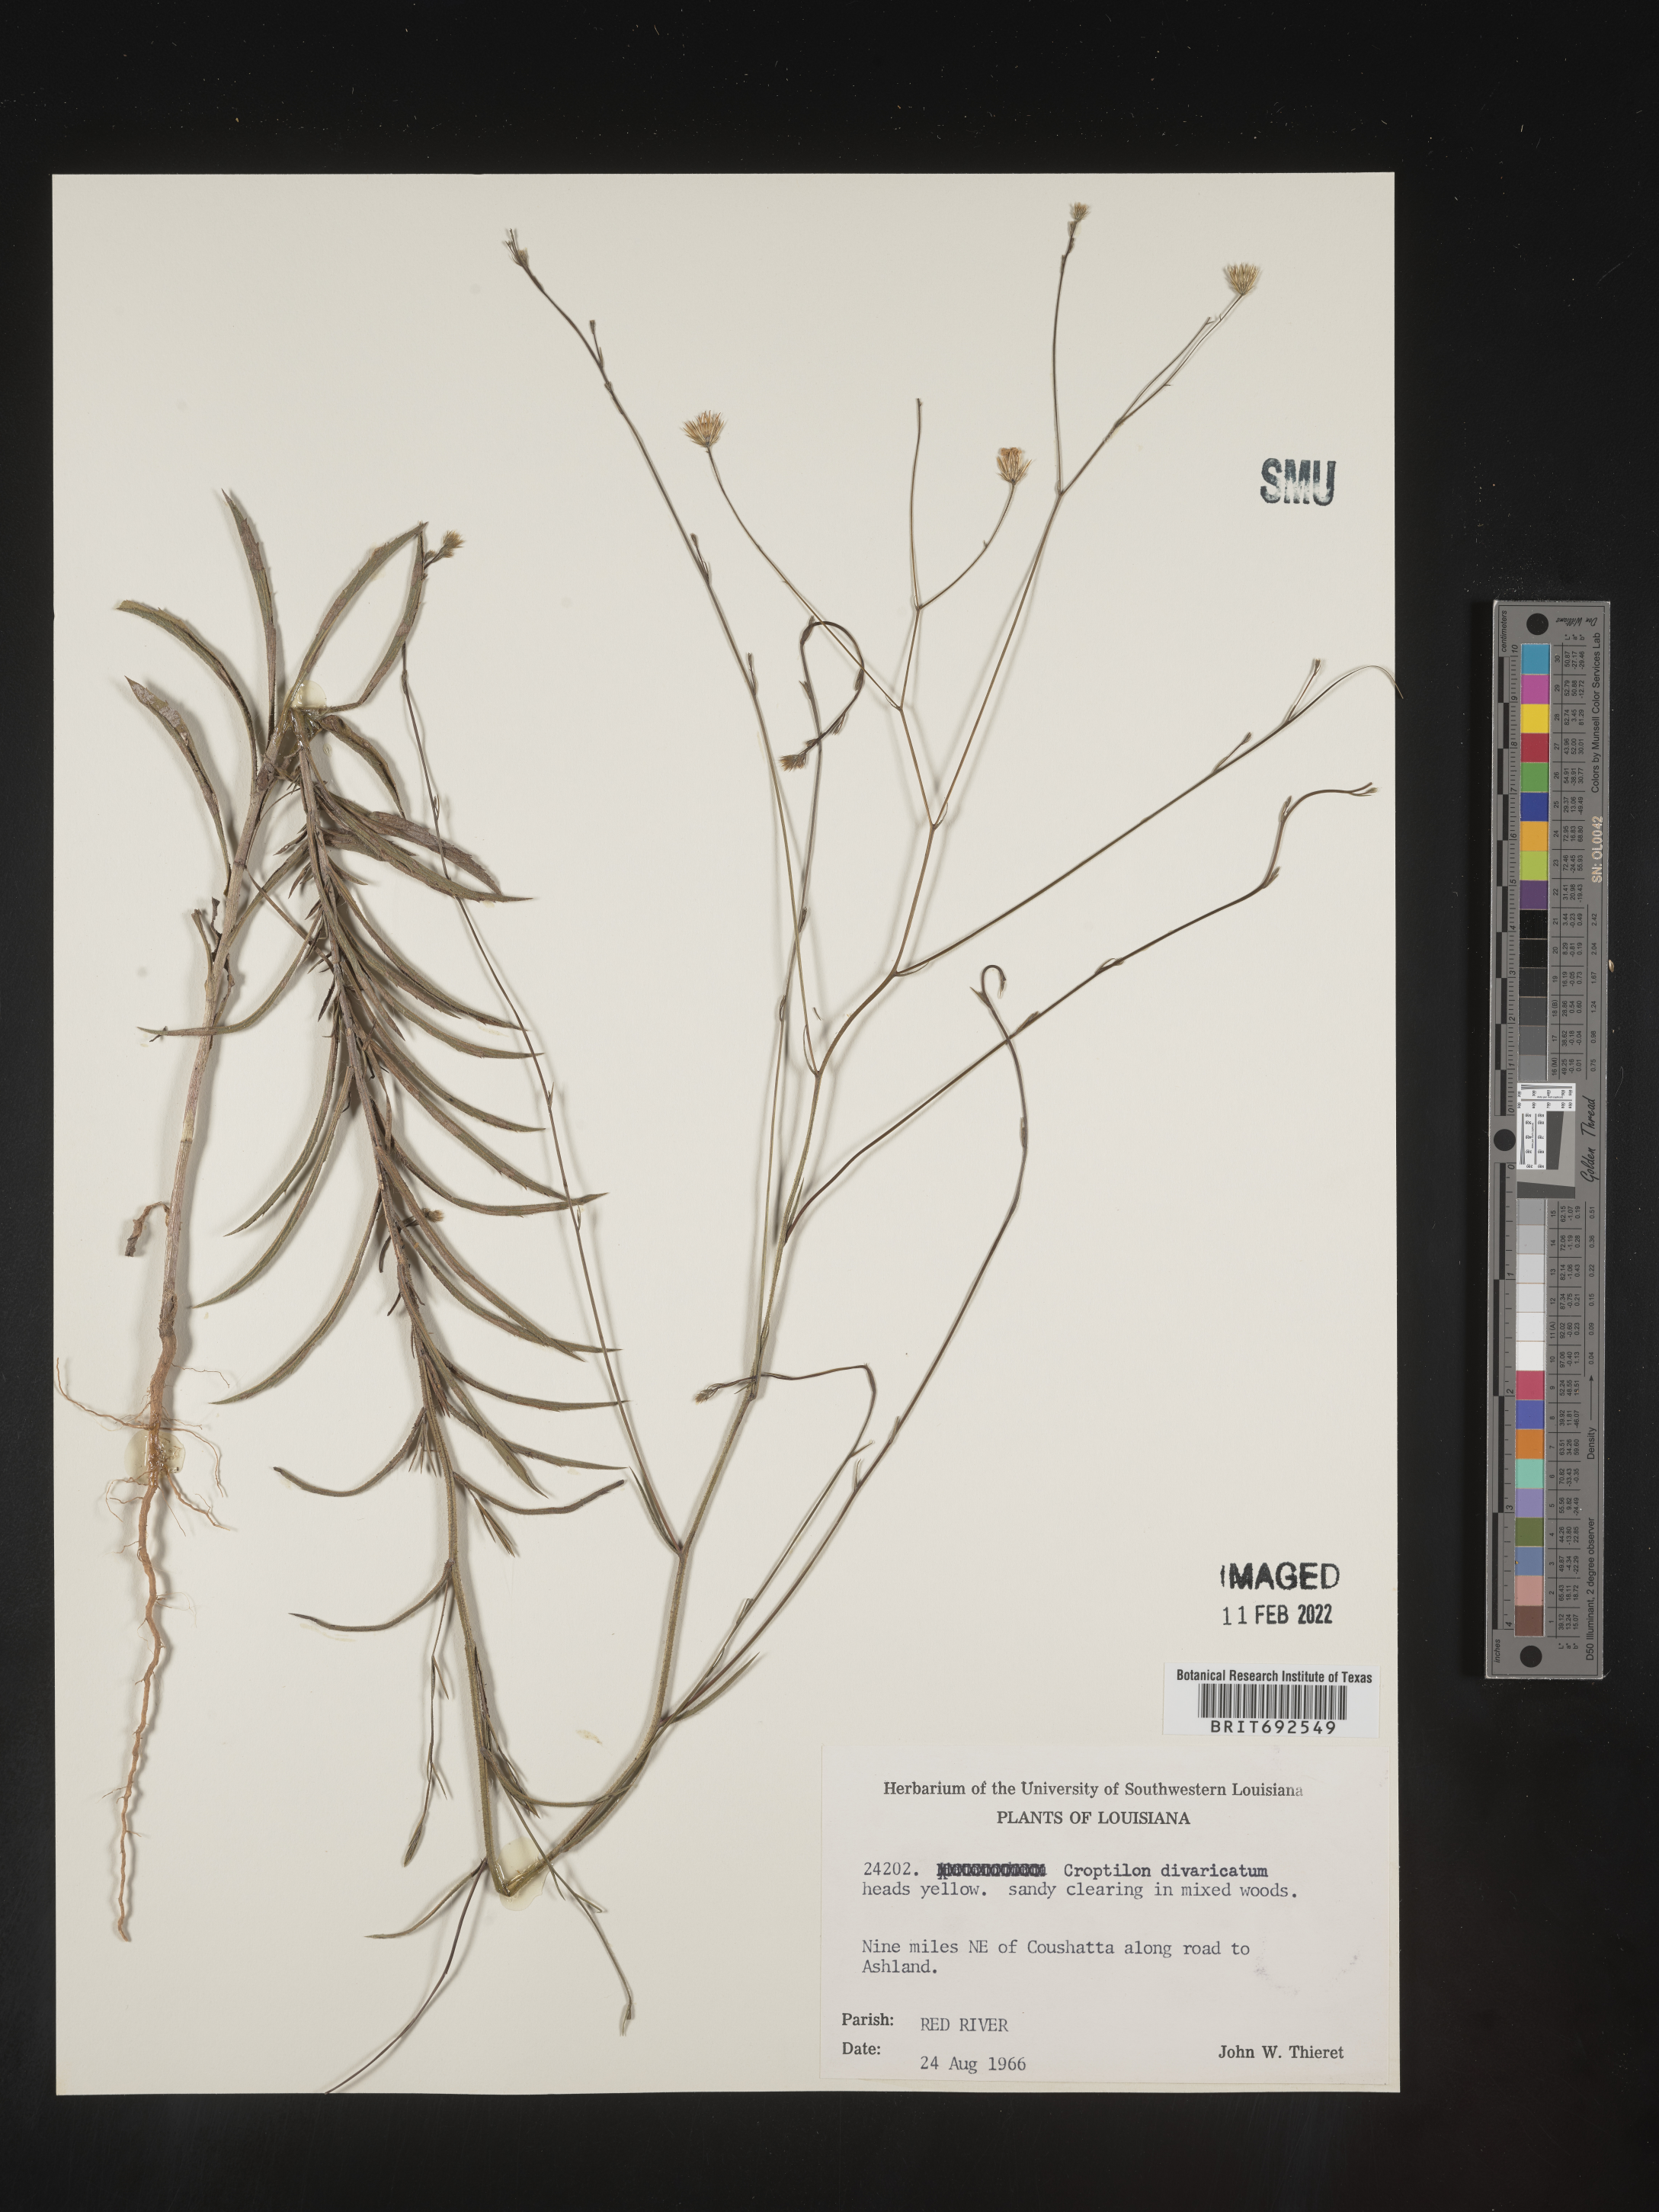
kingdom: Plantae
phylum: Tracheophyta
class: Magnoliopsida
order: Asterales
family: Asteraceae
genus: Croptilon
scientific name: Croptilon divaricatum
